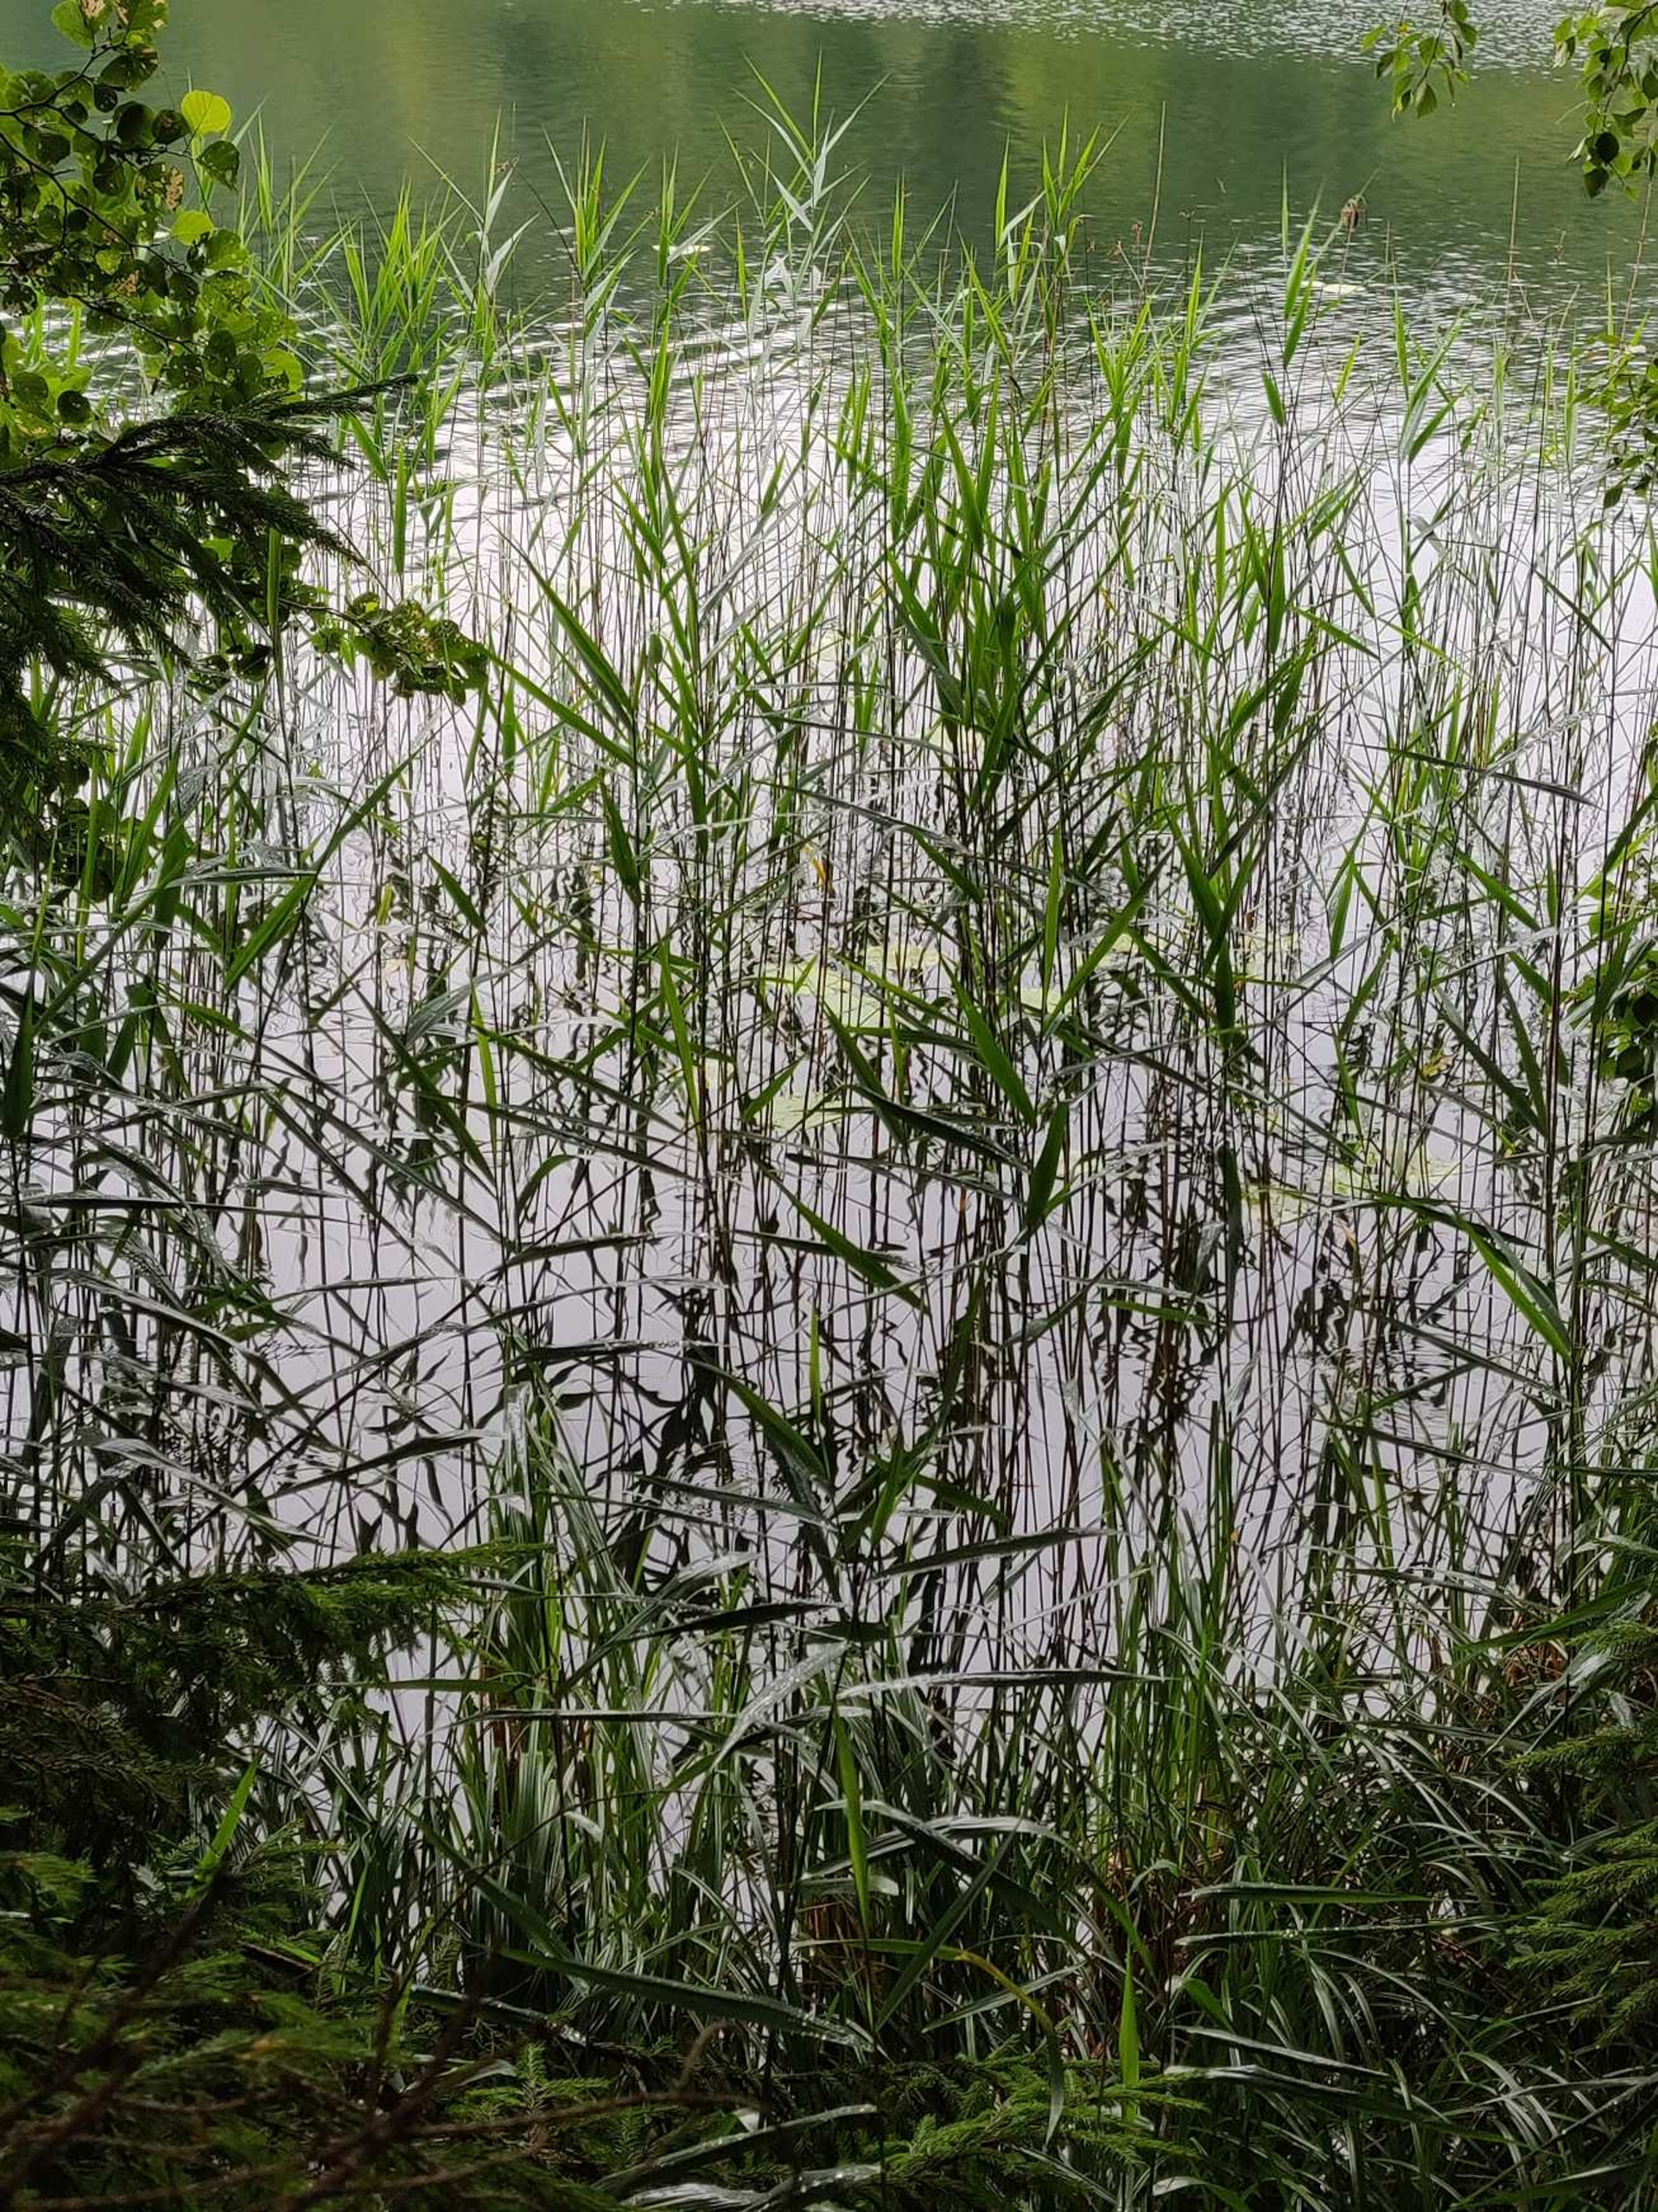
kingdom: Plantae
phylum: Tracheophyta
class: Liliopsida
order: Poales
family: Poaceae
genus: Phragmites
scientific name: Phragmites australis
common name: Tagrør
